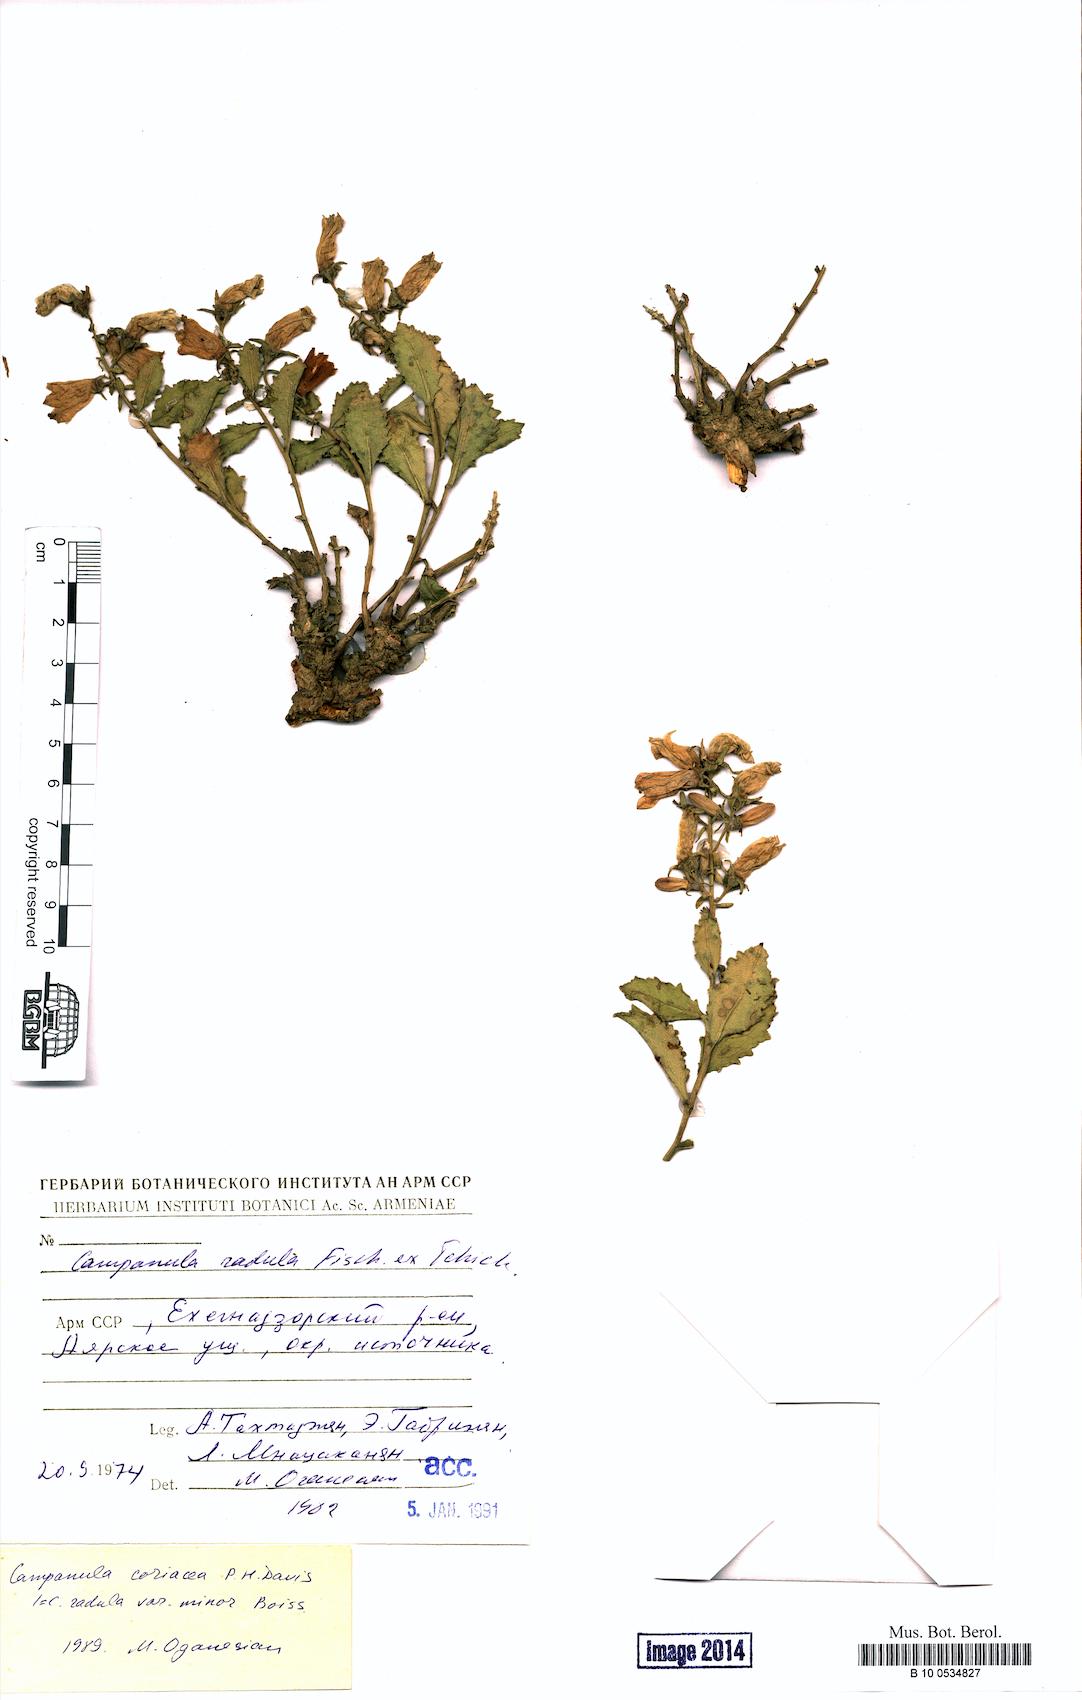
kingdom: Plantae
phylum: Tracheophyta
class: Magnoliopsida
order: Asterales
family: Campanulaceae
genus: Campanula
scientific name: Campanula coriacea
